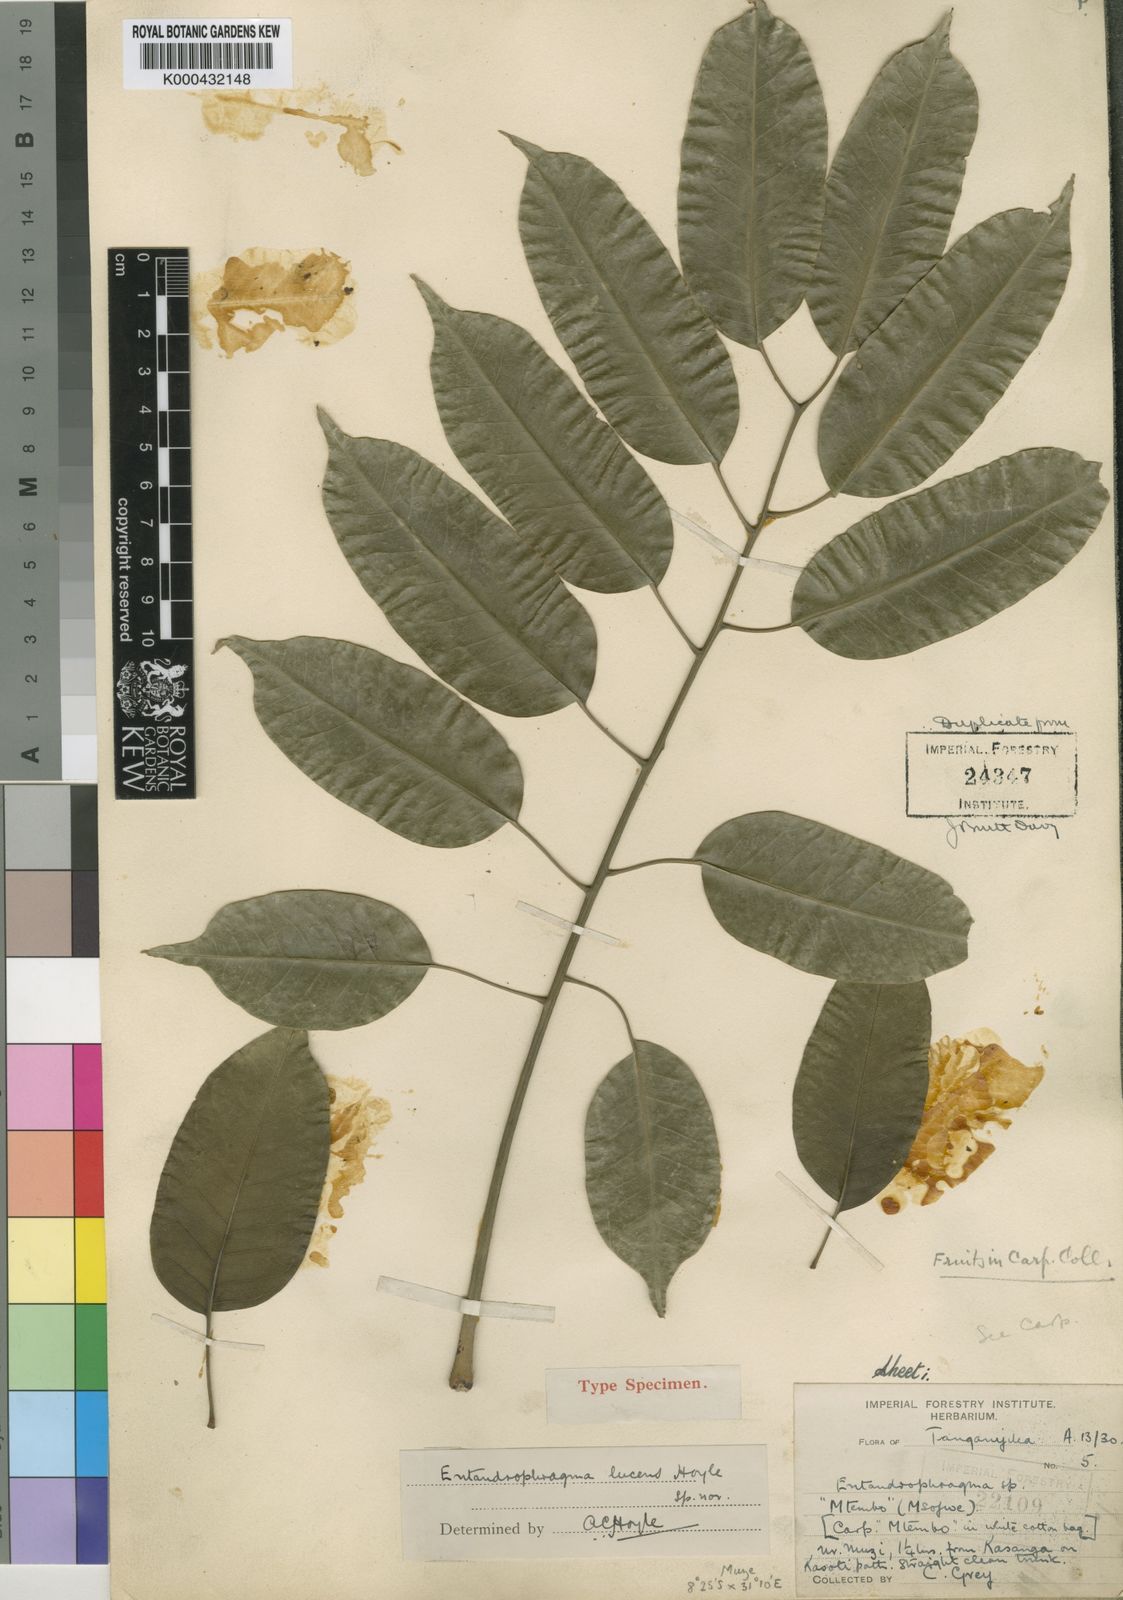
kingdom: Plantae
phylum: Tracheophyta
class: Magnoliopsida
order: Sapindales
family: Meliaceae
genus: Entandrophragma
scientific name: Entandrophragma delevoyi
